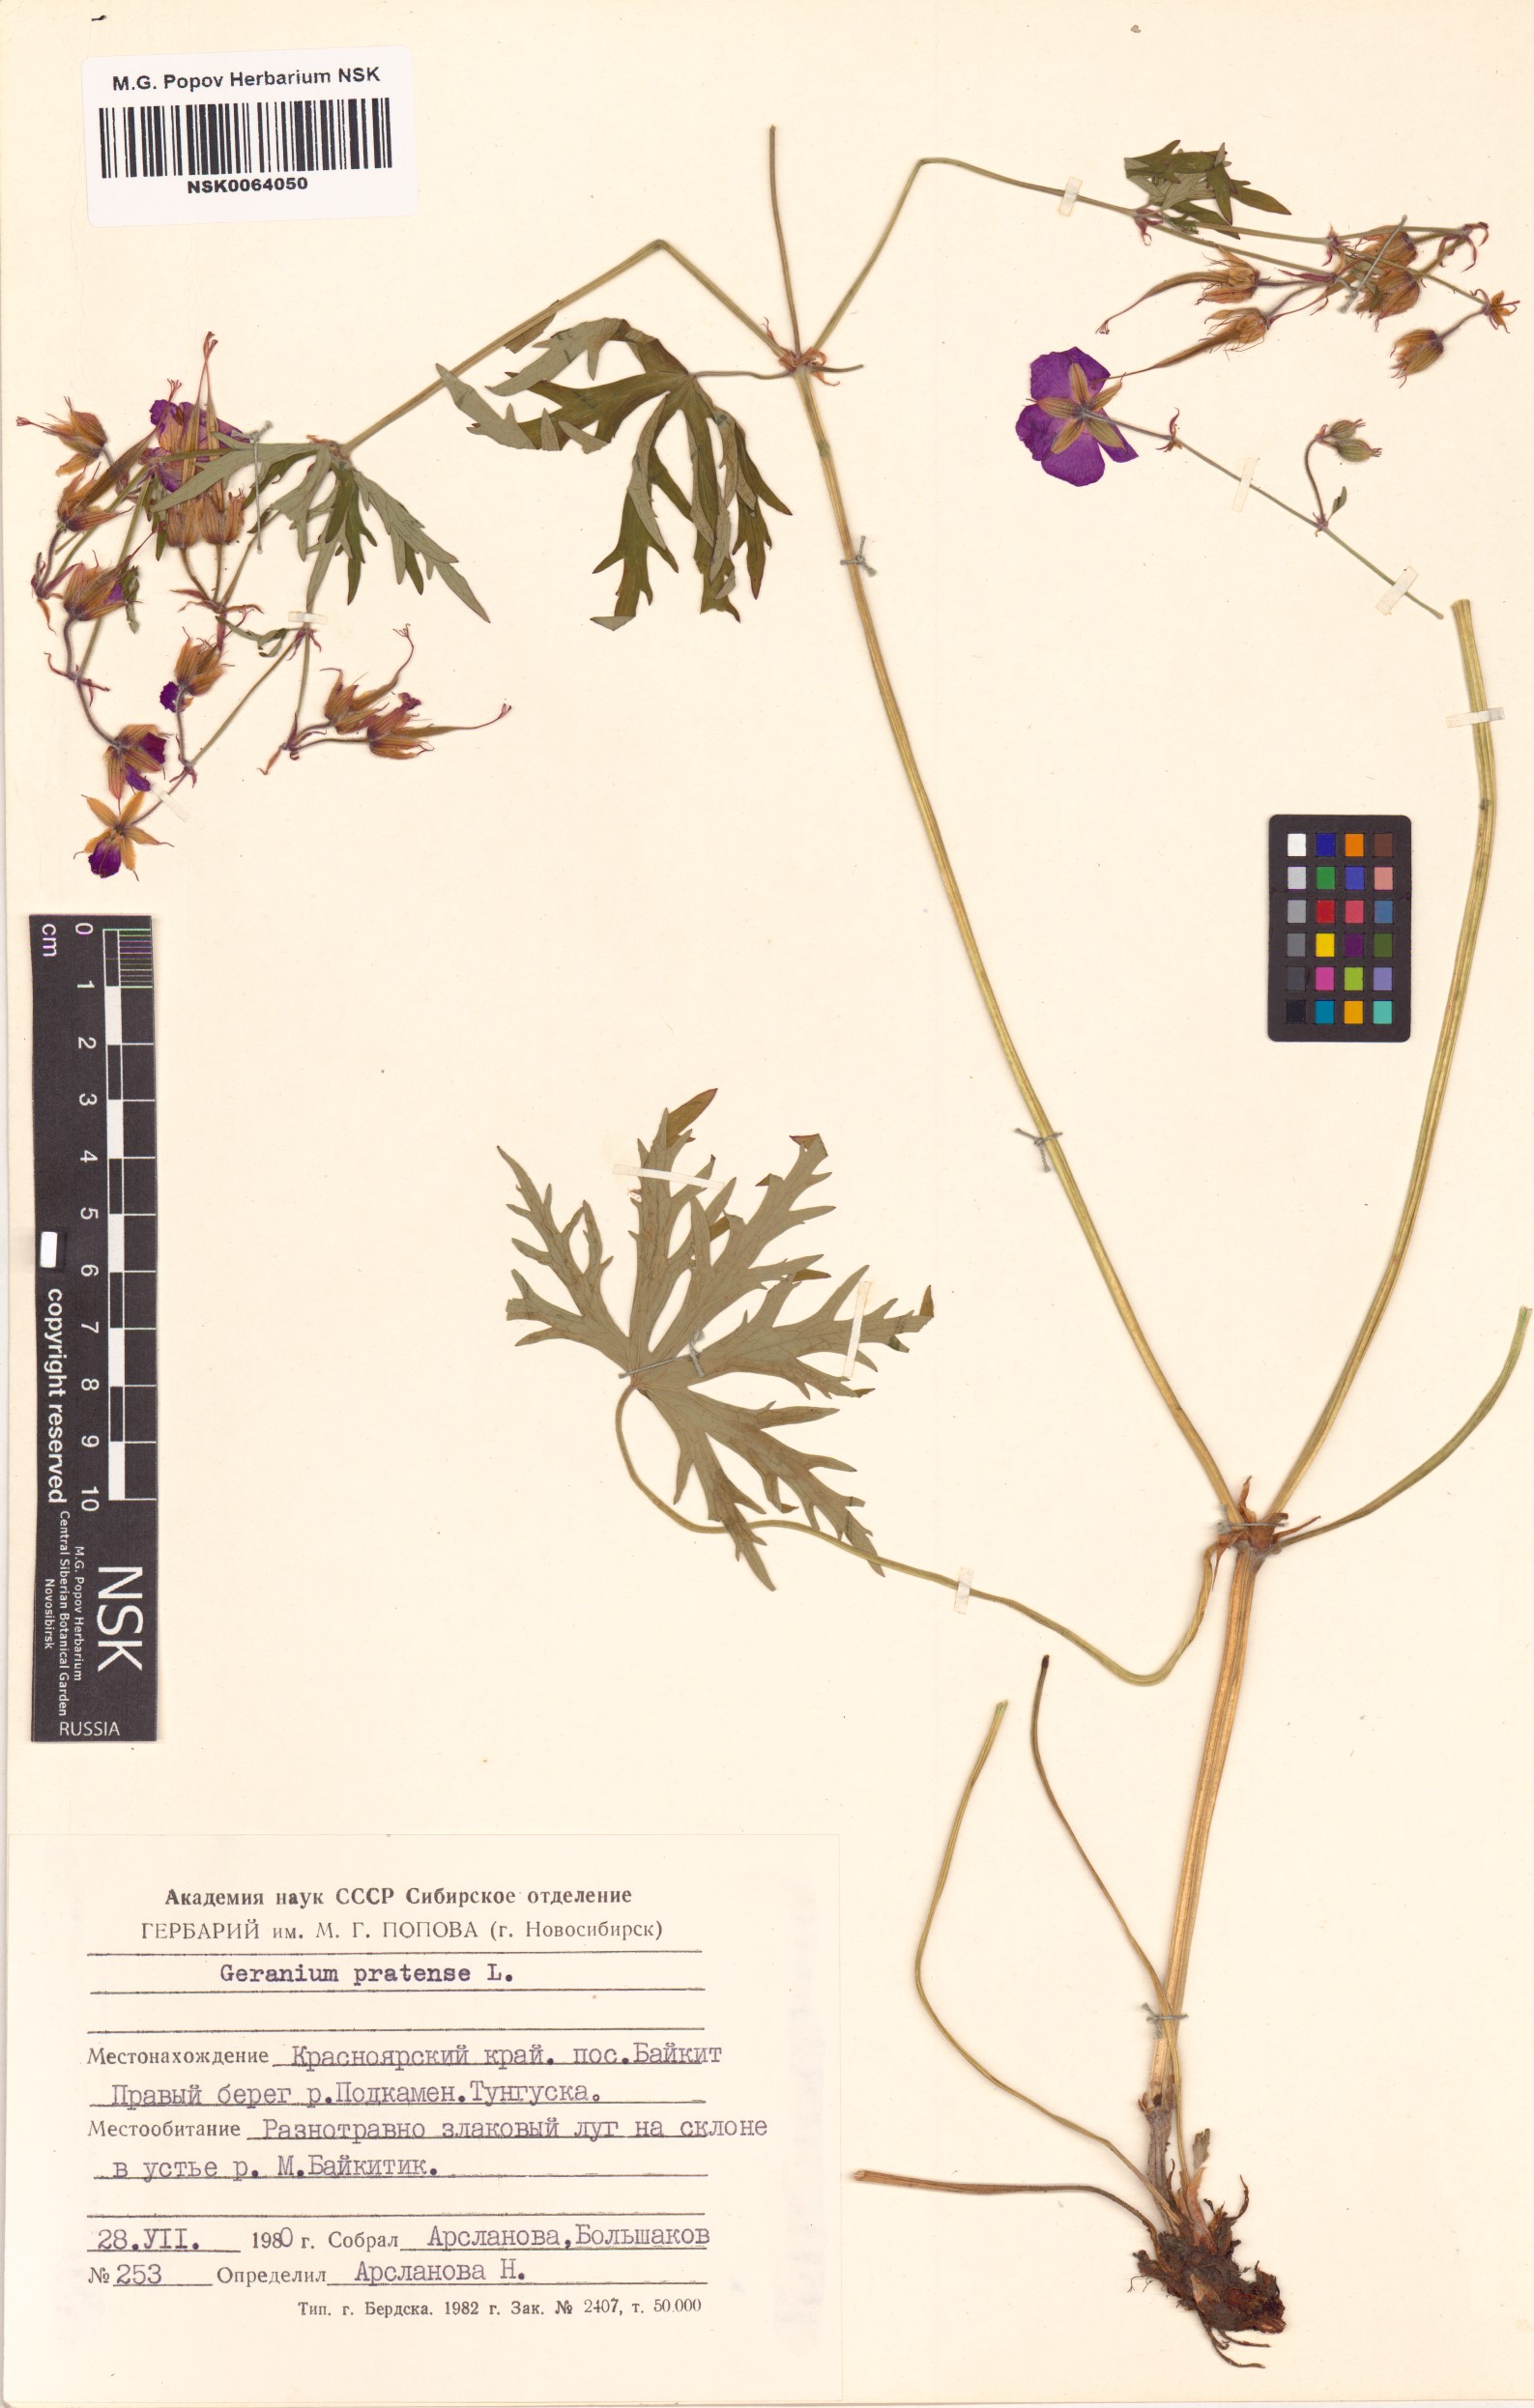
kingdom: Plantae
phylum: Tracheophyta
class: Magnoliopsida
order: Geraniales
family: Geraniaceae
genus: Geranium
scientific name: Geranium pratense
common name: Meadow crane's-bill
